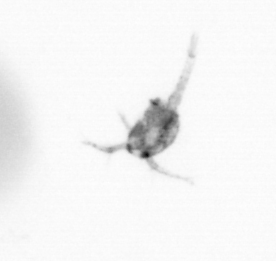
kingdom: Animalia
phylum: Arthropoda
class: Copepoda
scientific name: Copepoda
